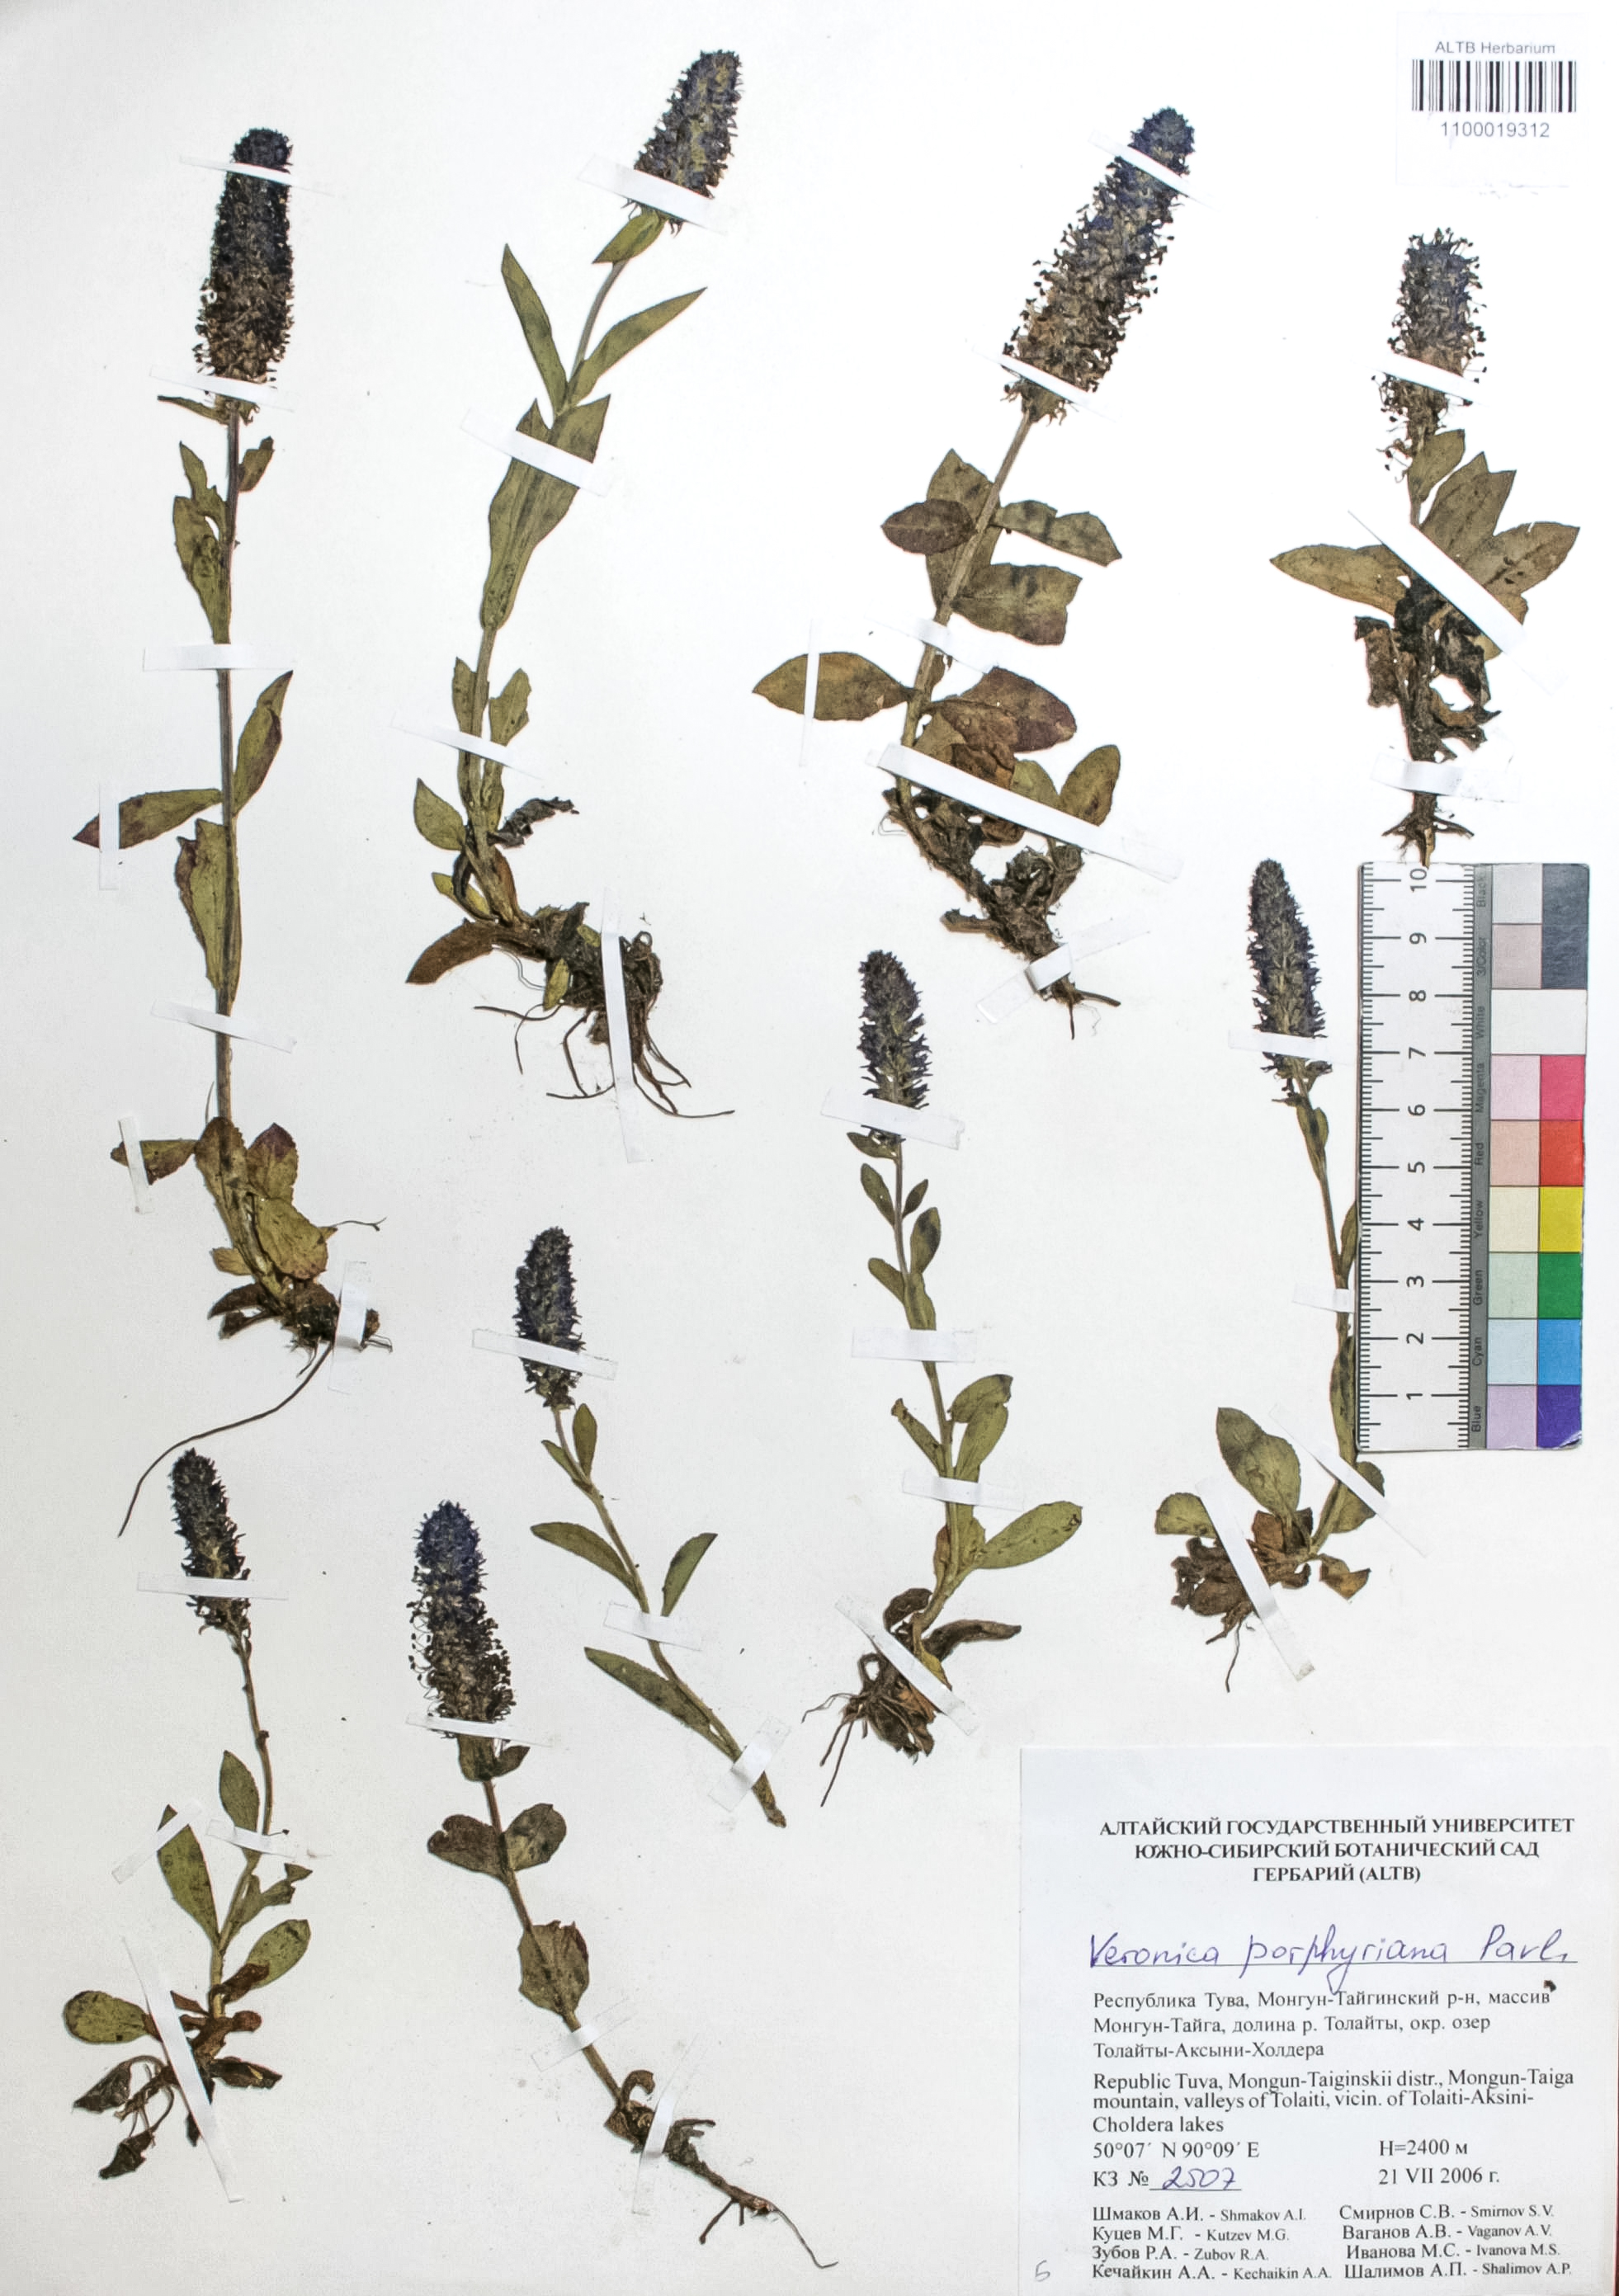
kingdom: Plantae
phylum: Tracheophyta
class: Magnoliopsida
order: Lamiales
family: Plantaginaceae
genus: Veronica
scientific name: Veronica porphyriana
